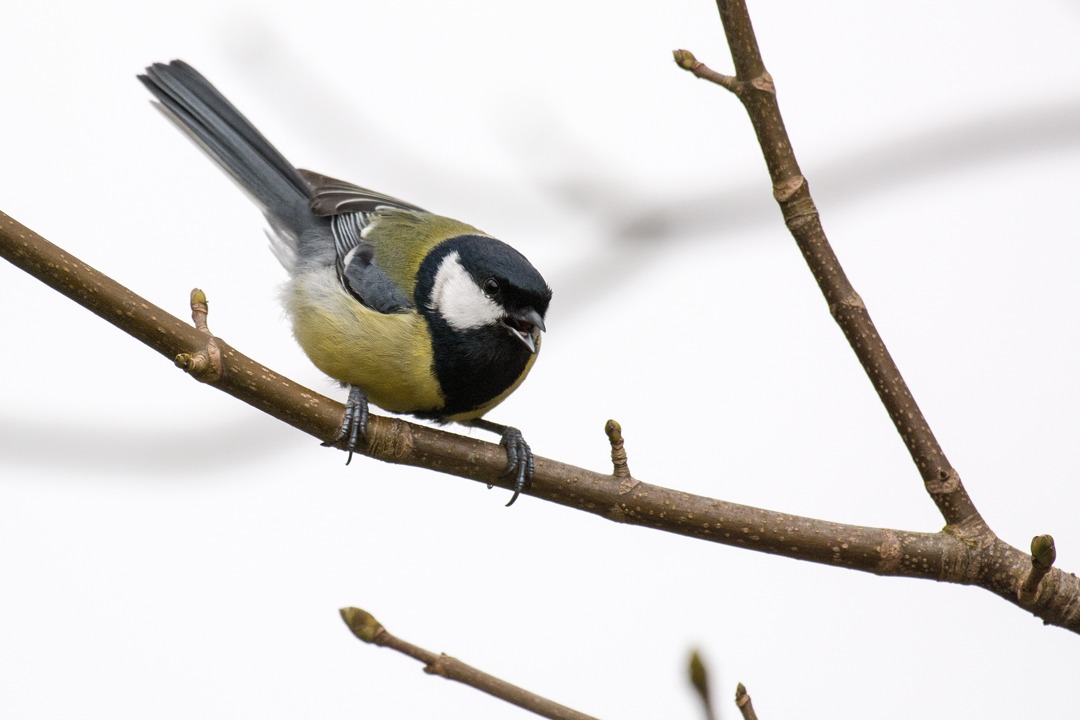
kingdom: Animalia
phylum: Chordata
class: Aves
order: Passeriformes
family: Paridae
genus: Parus
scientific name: Parus major
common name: Musvit
